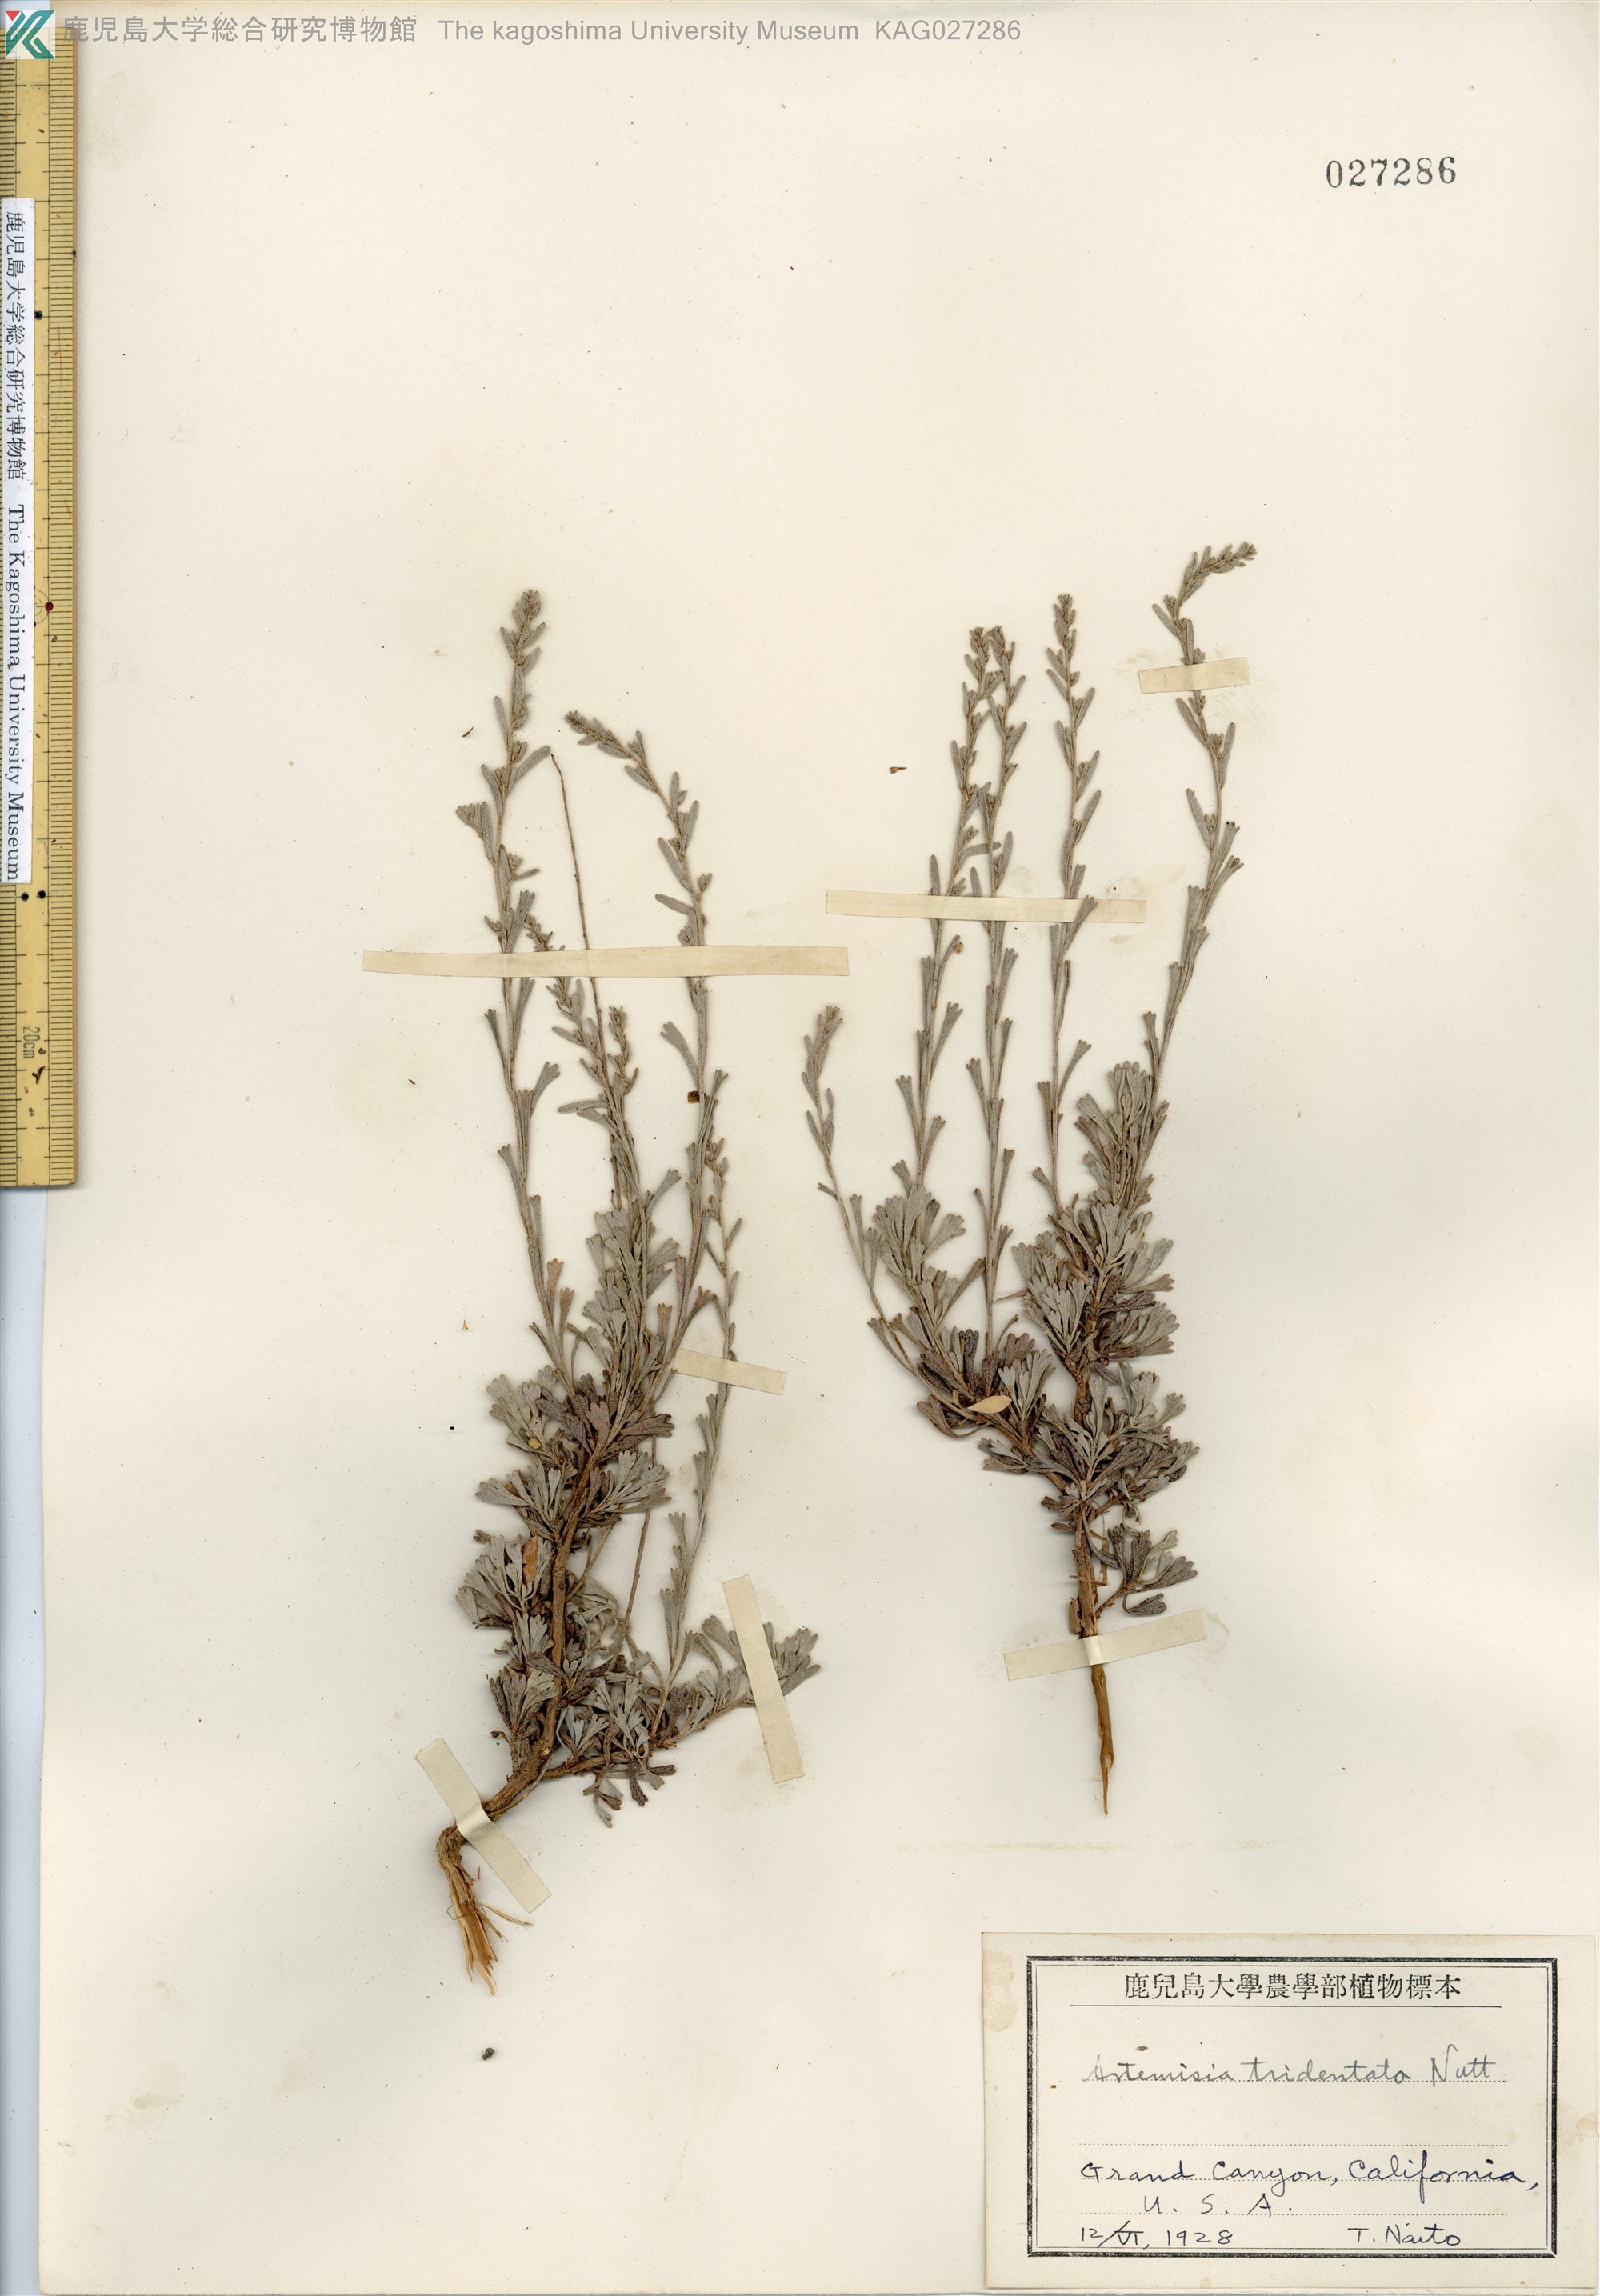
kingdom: Plantae
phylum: Tracheophyta
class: Magnoliopsida
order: Asterales
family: Asteraceae
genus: Artemisia
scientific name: Artemisia tridentata
